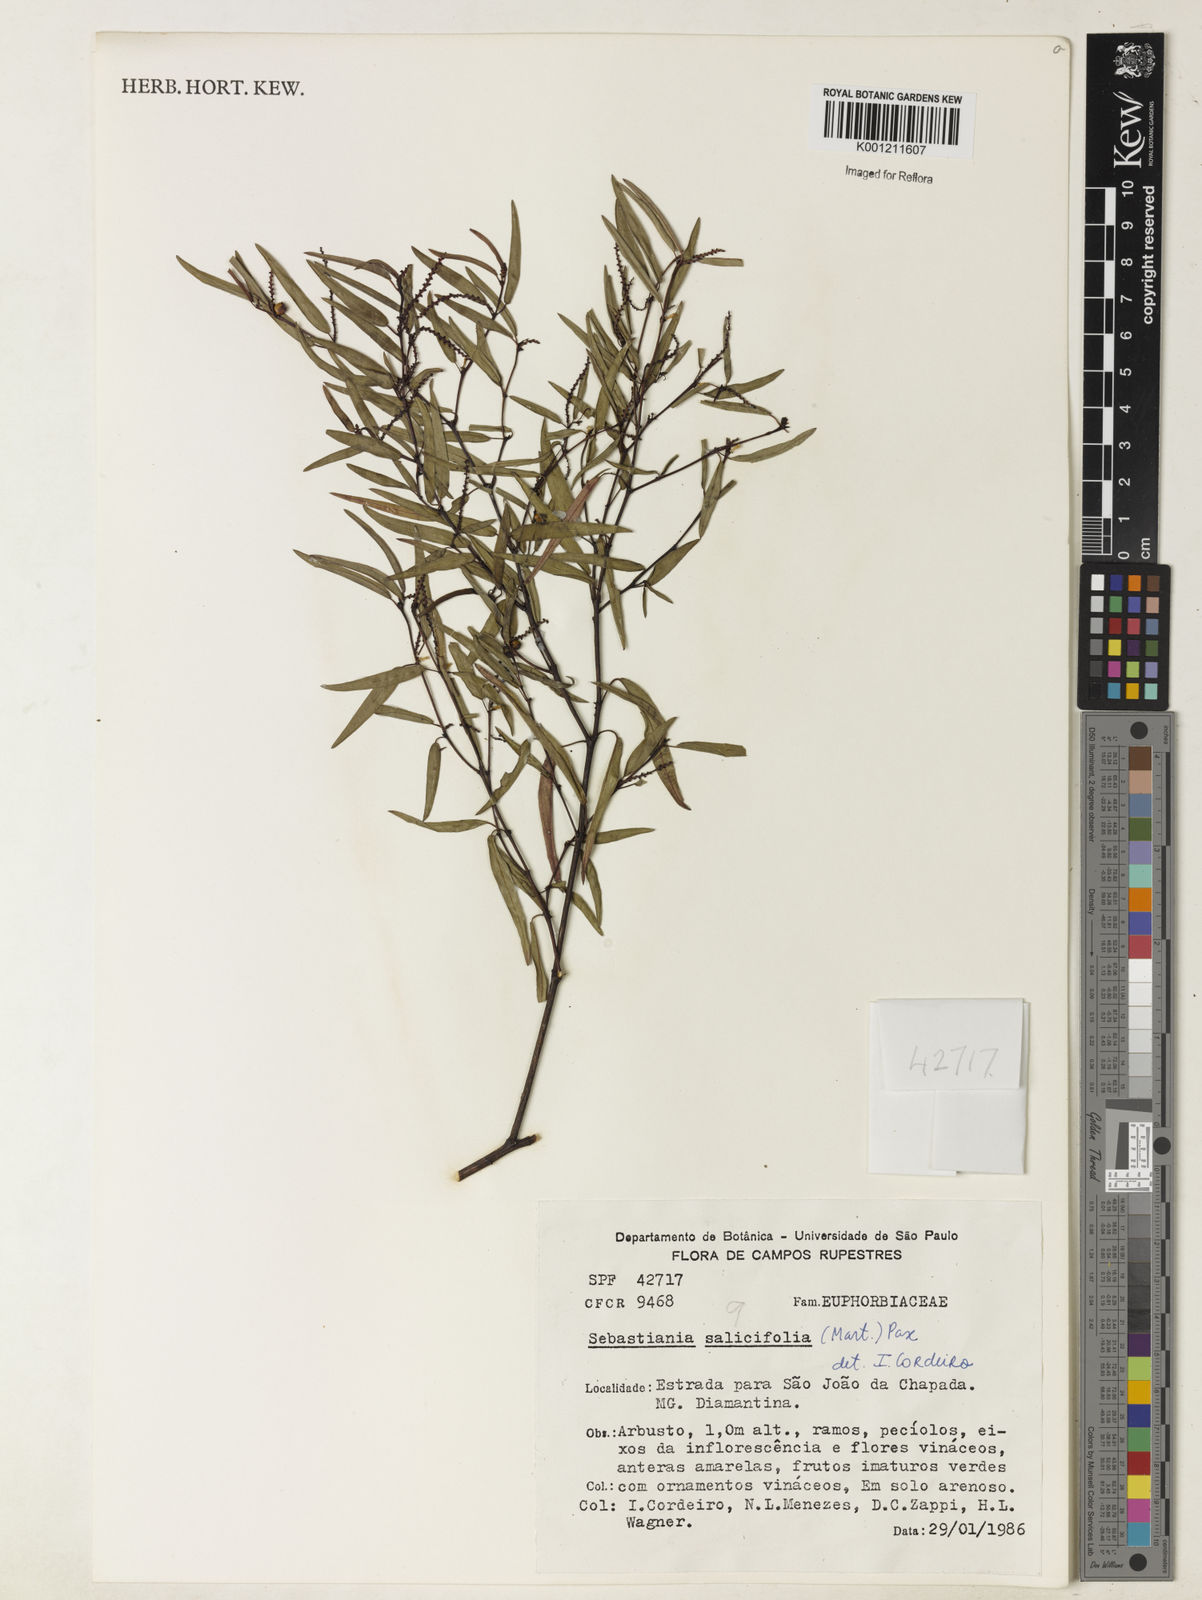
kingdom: Plantae
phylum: Tracheophyta
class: Magnoliopsida
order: Malpighiales
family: Euphorbiaceae
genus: Microstachys
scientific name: Microstachys
